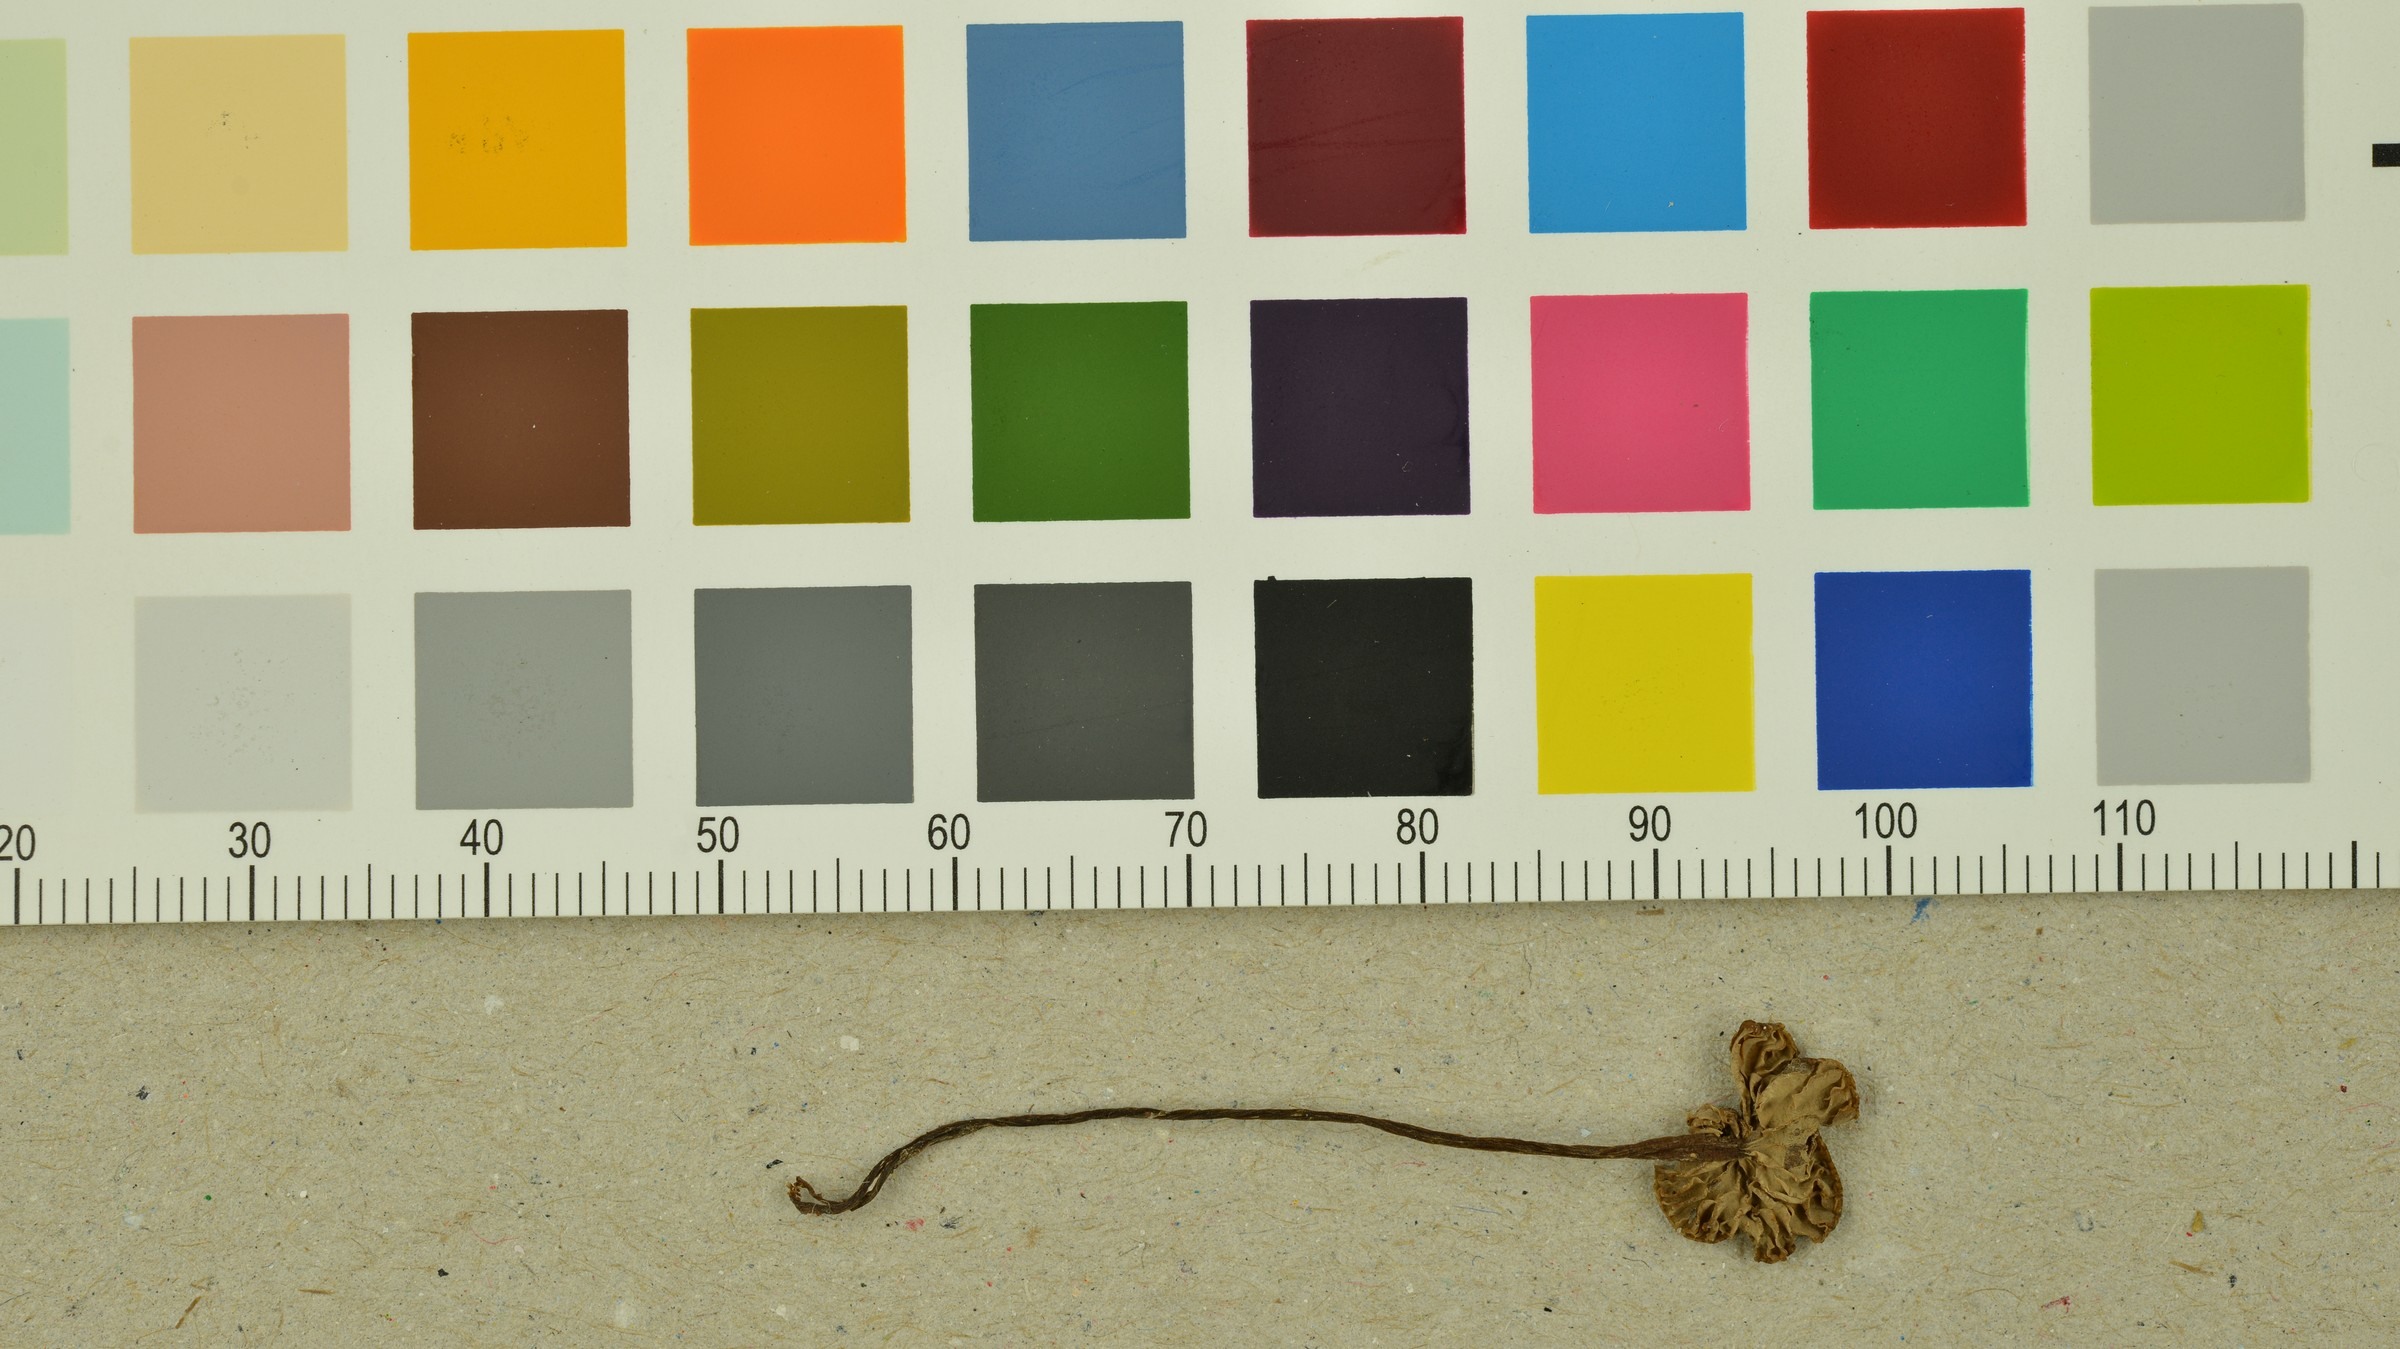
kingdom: Fungi
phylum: Basidiomycota
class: Agaricomycetes
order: Agaricales
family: Entolomataceae
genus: Entoloma
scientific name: Entoloma minutum
